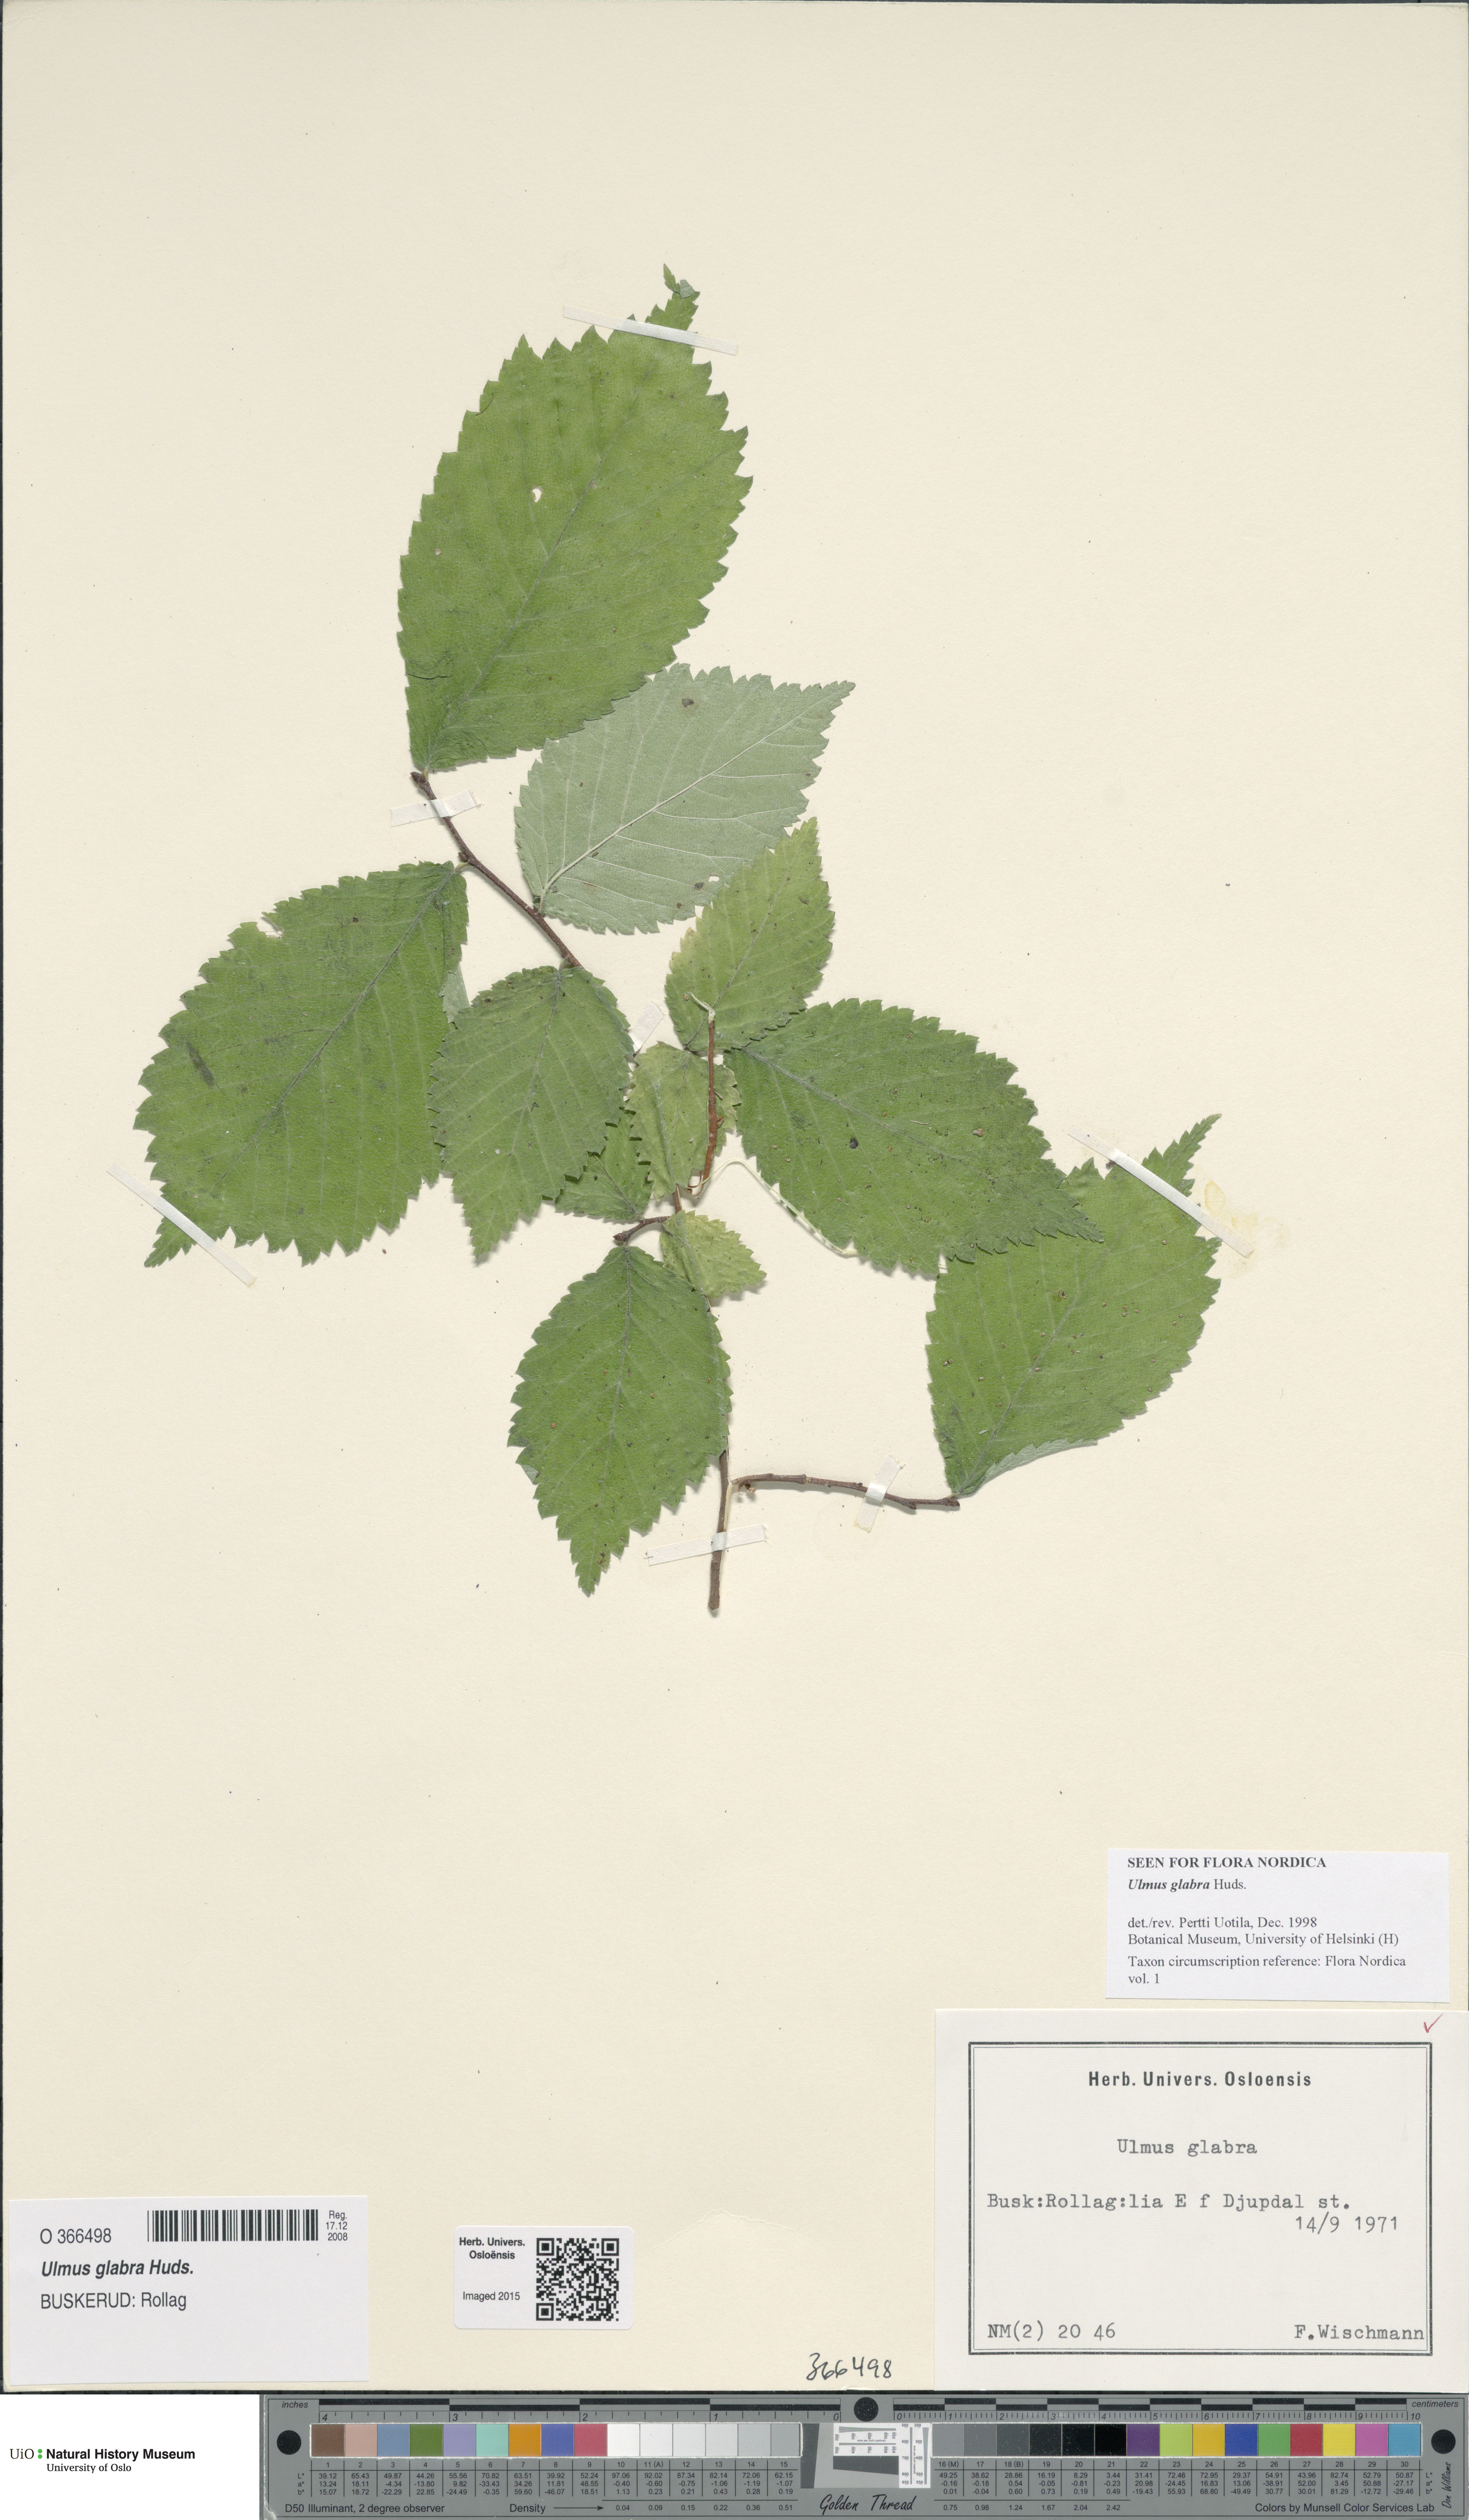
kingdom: Plantae
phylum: Tracheophyta
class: Magnoliopsida
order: Rosales
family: Ulmaceae
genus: Ulmus
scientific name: Ulmus glabra
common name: Wych elm
